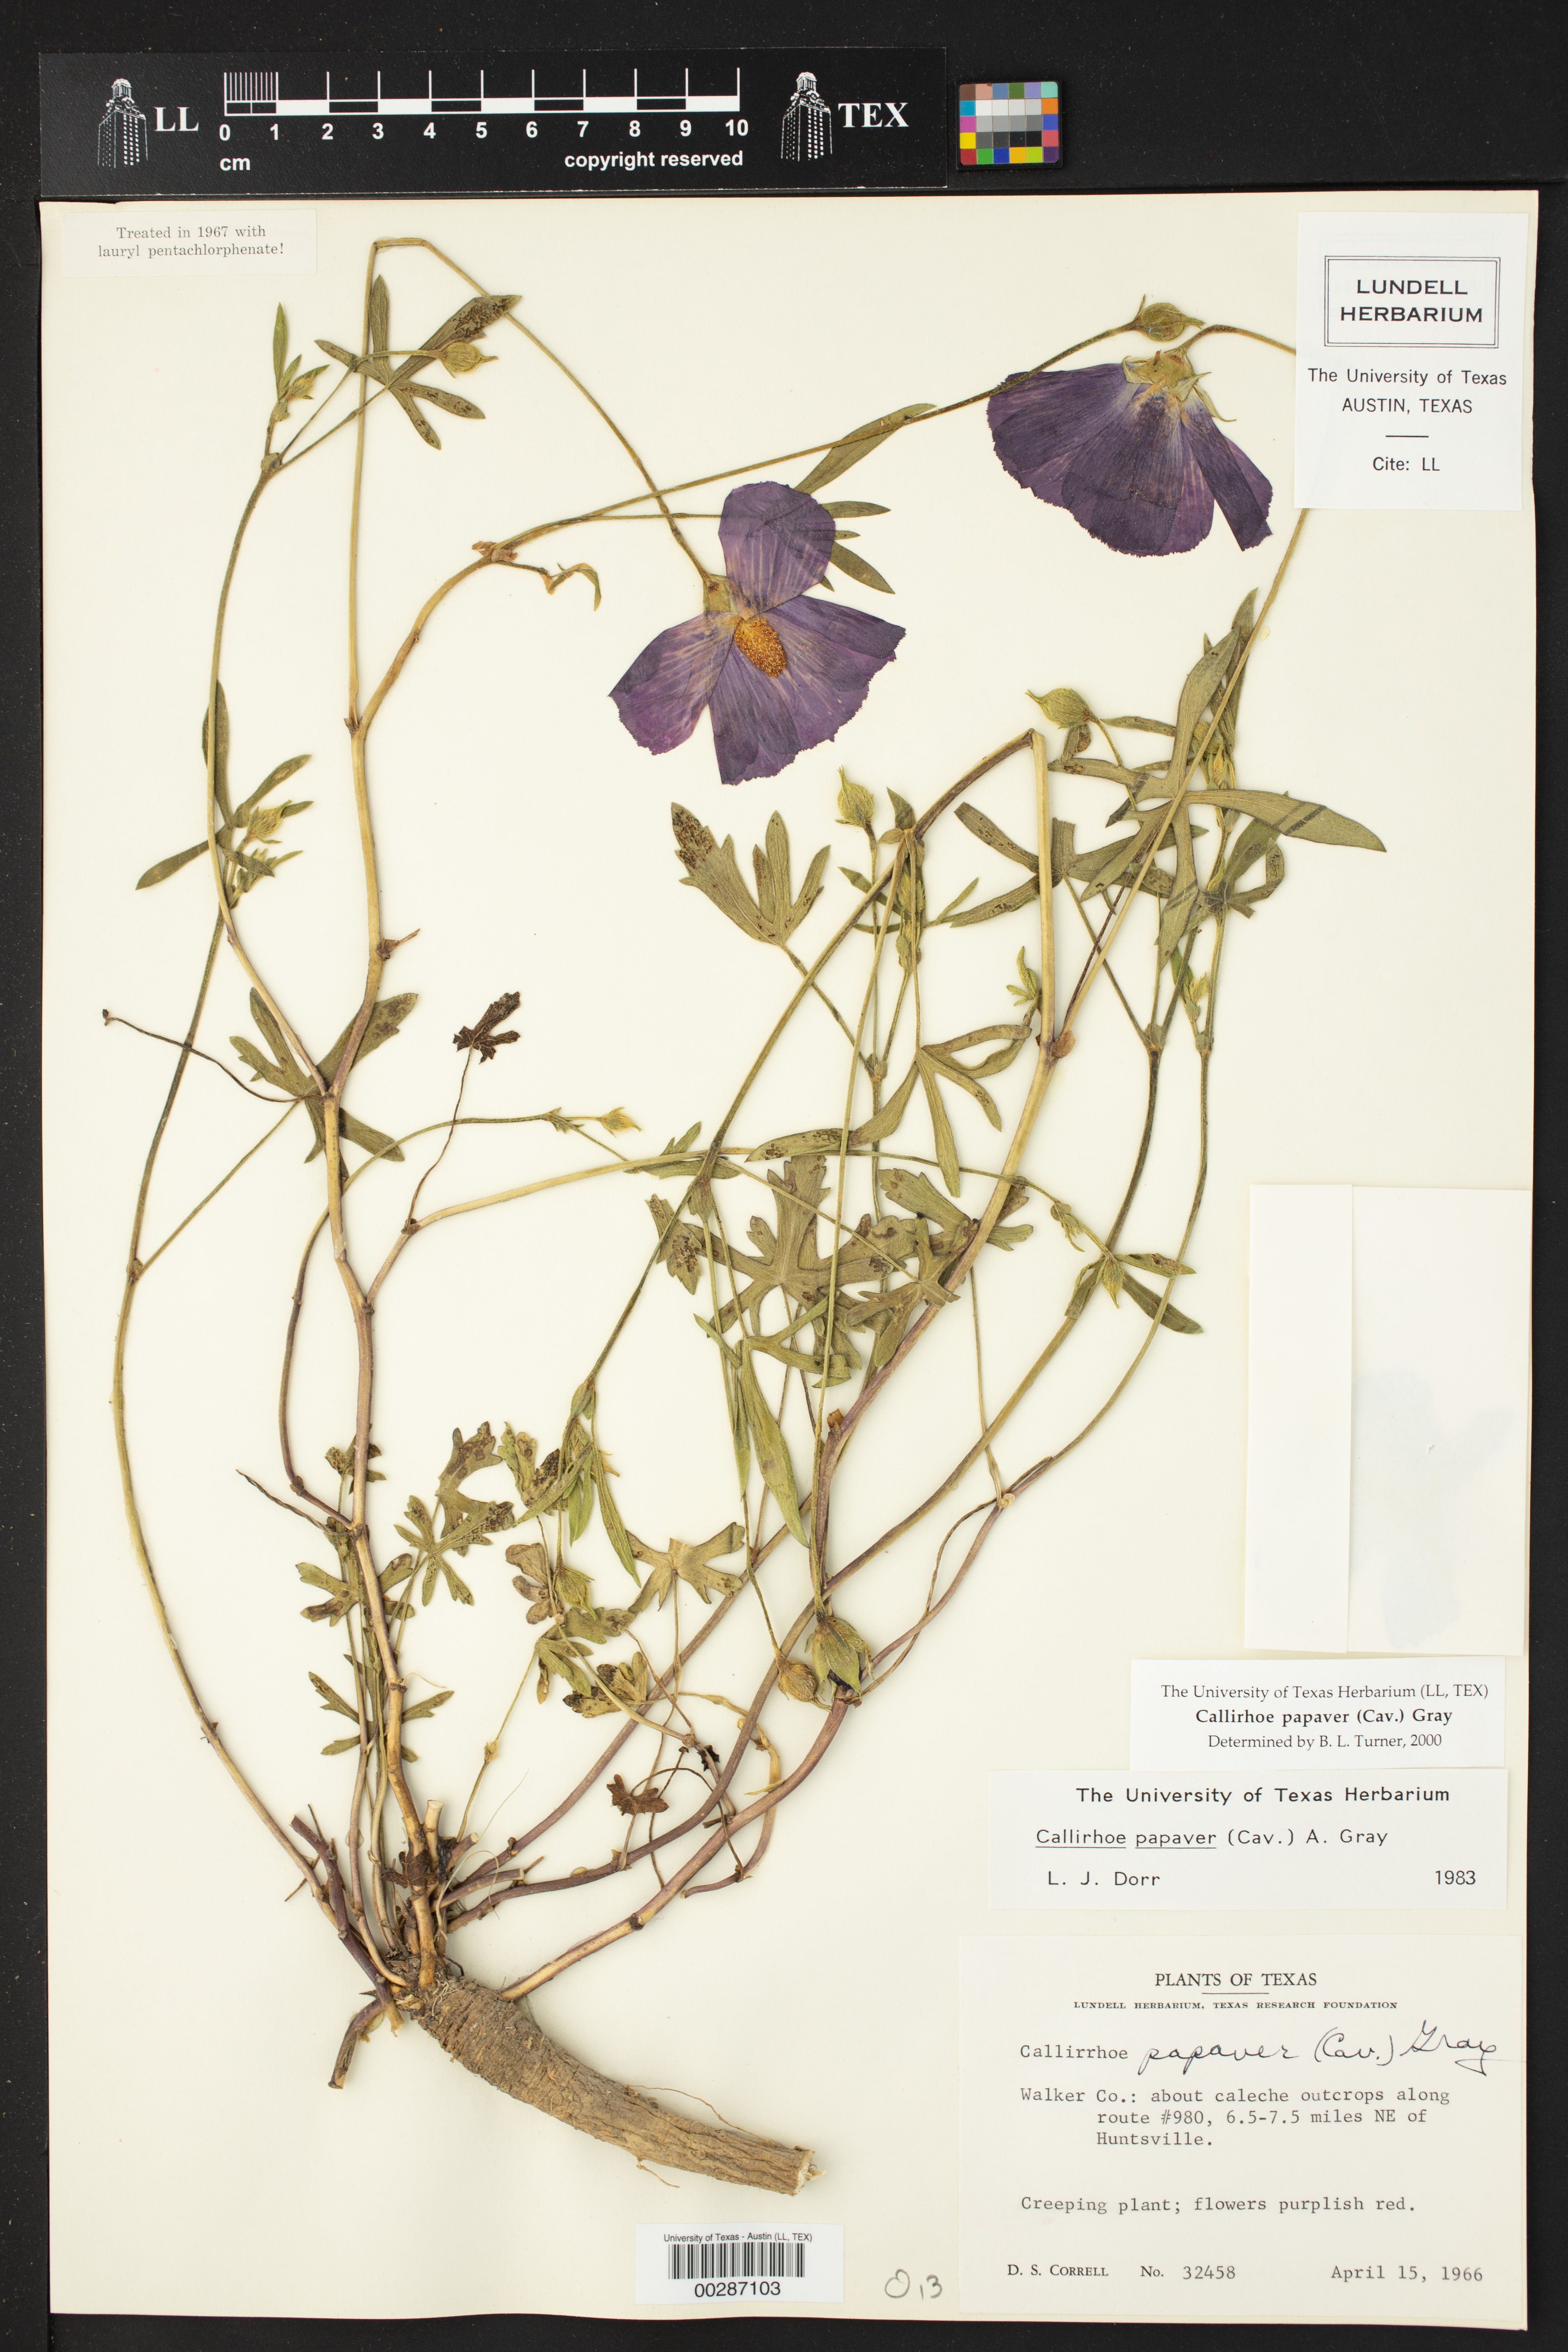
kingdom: Plantae
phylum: Tracheophyta
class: Magnoliopsida
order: Malvales
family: Malvaceae
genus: Callirhoe
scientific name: Callirhoe papaver
